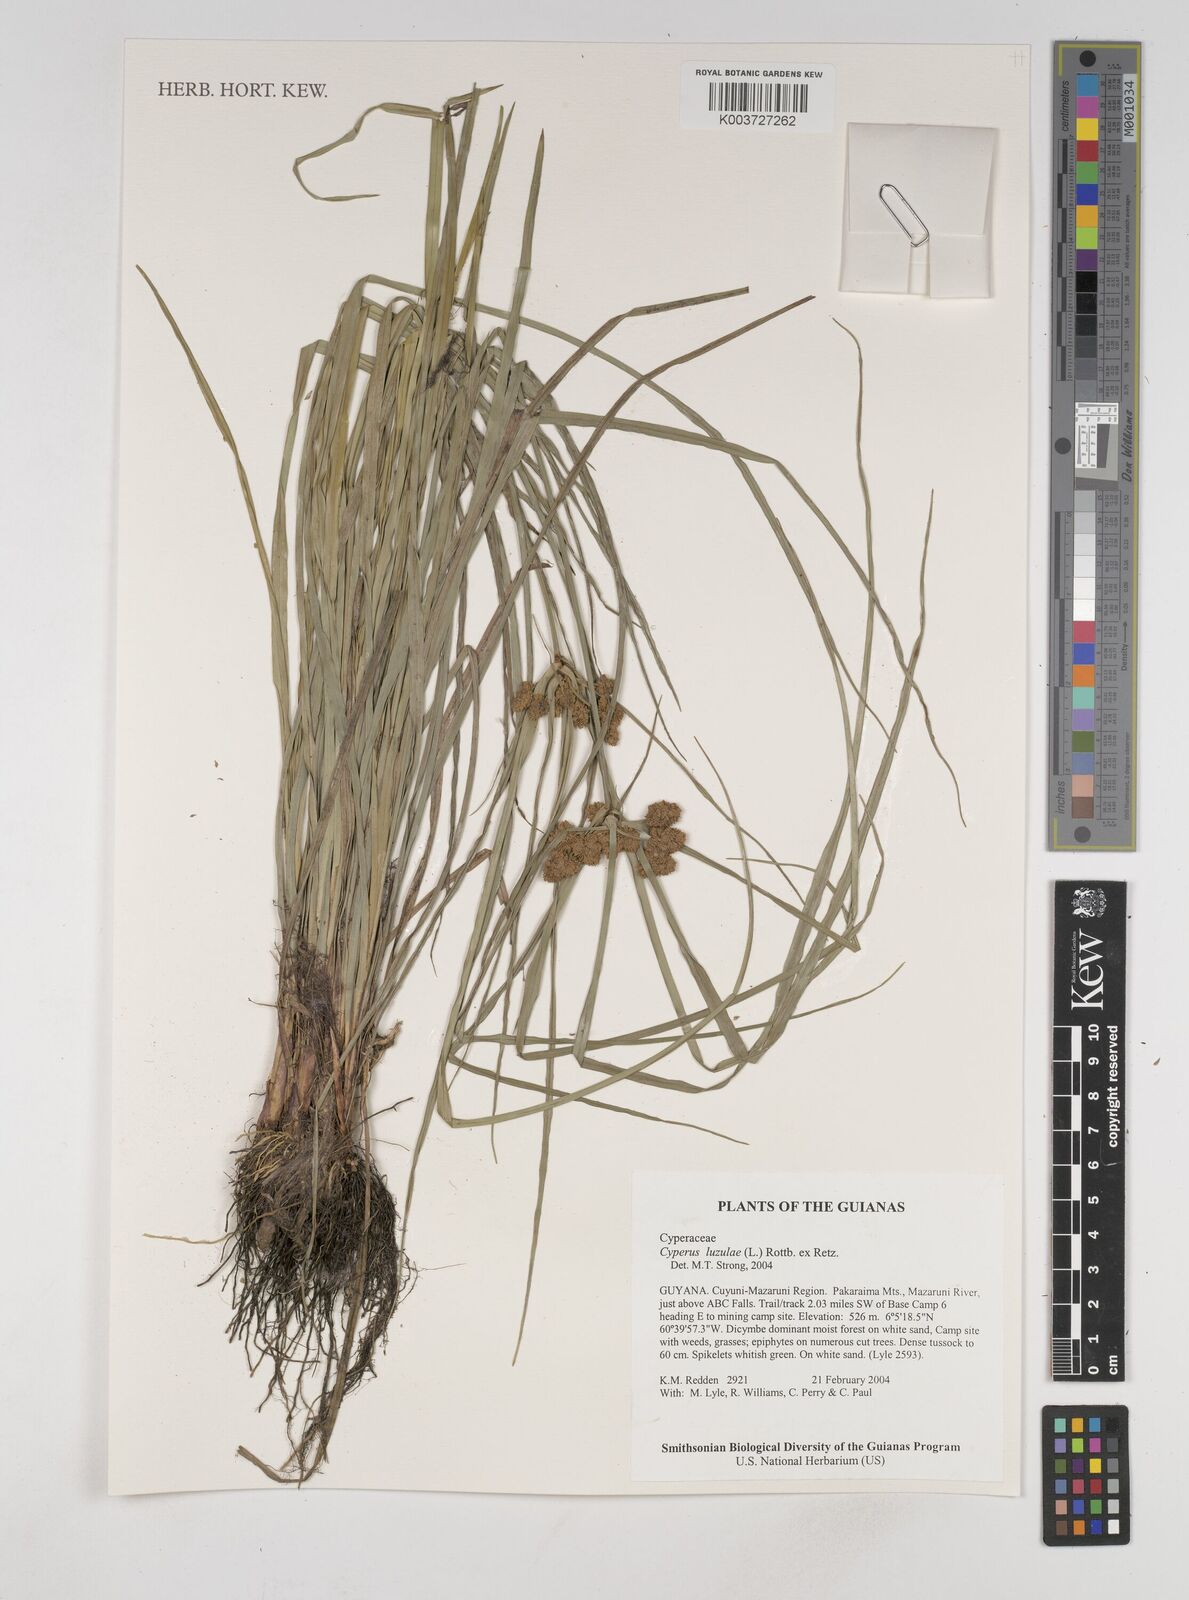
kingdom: Plantae
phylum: Tracheophyta
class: Liliopsida
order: Poales
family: Cyperaceae
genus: Cyperus
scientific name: Cyperus luzulae
